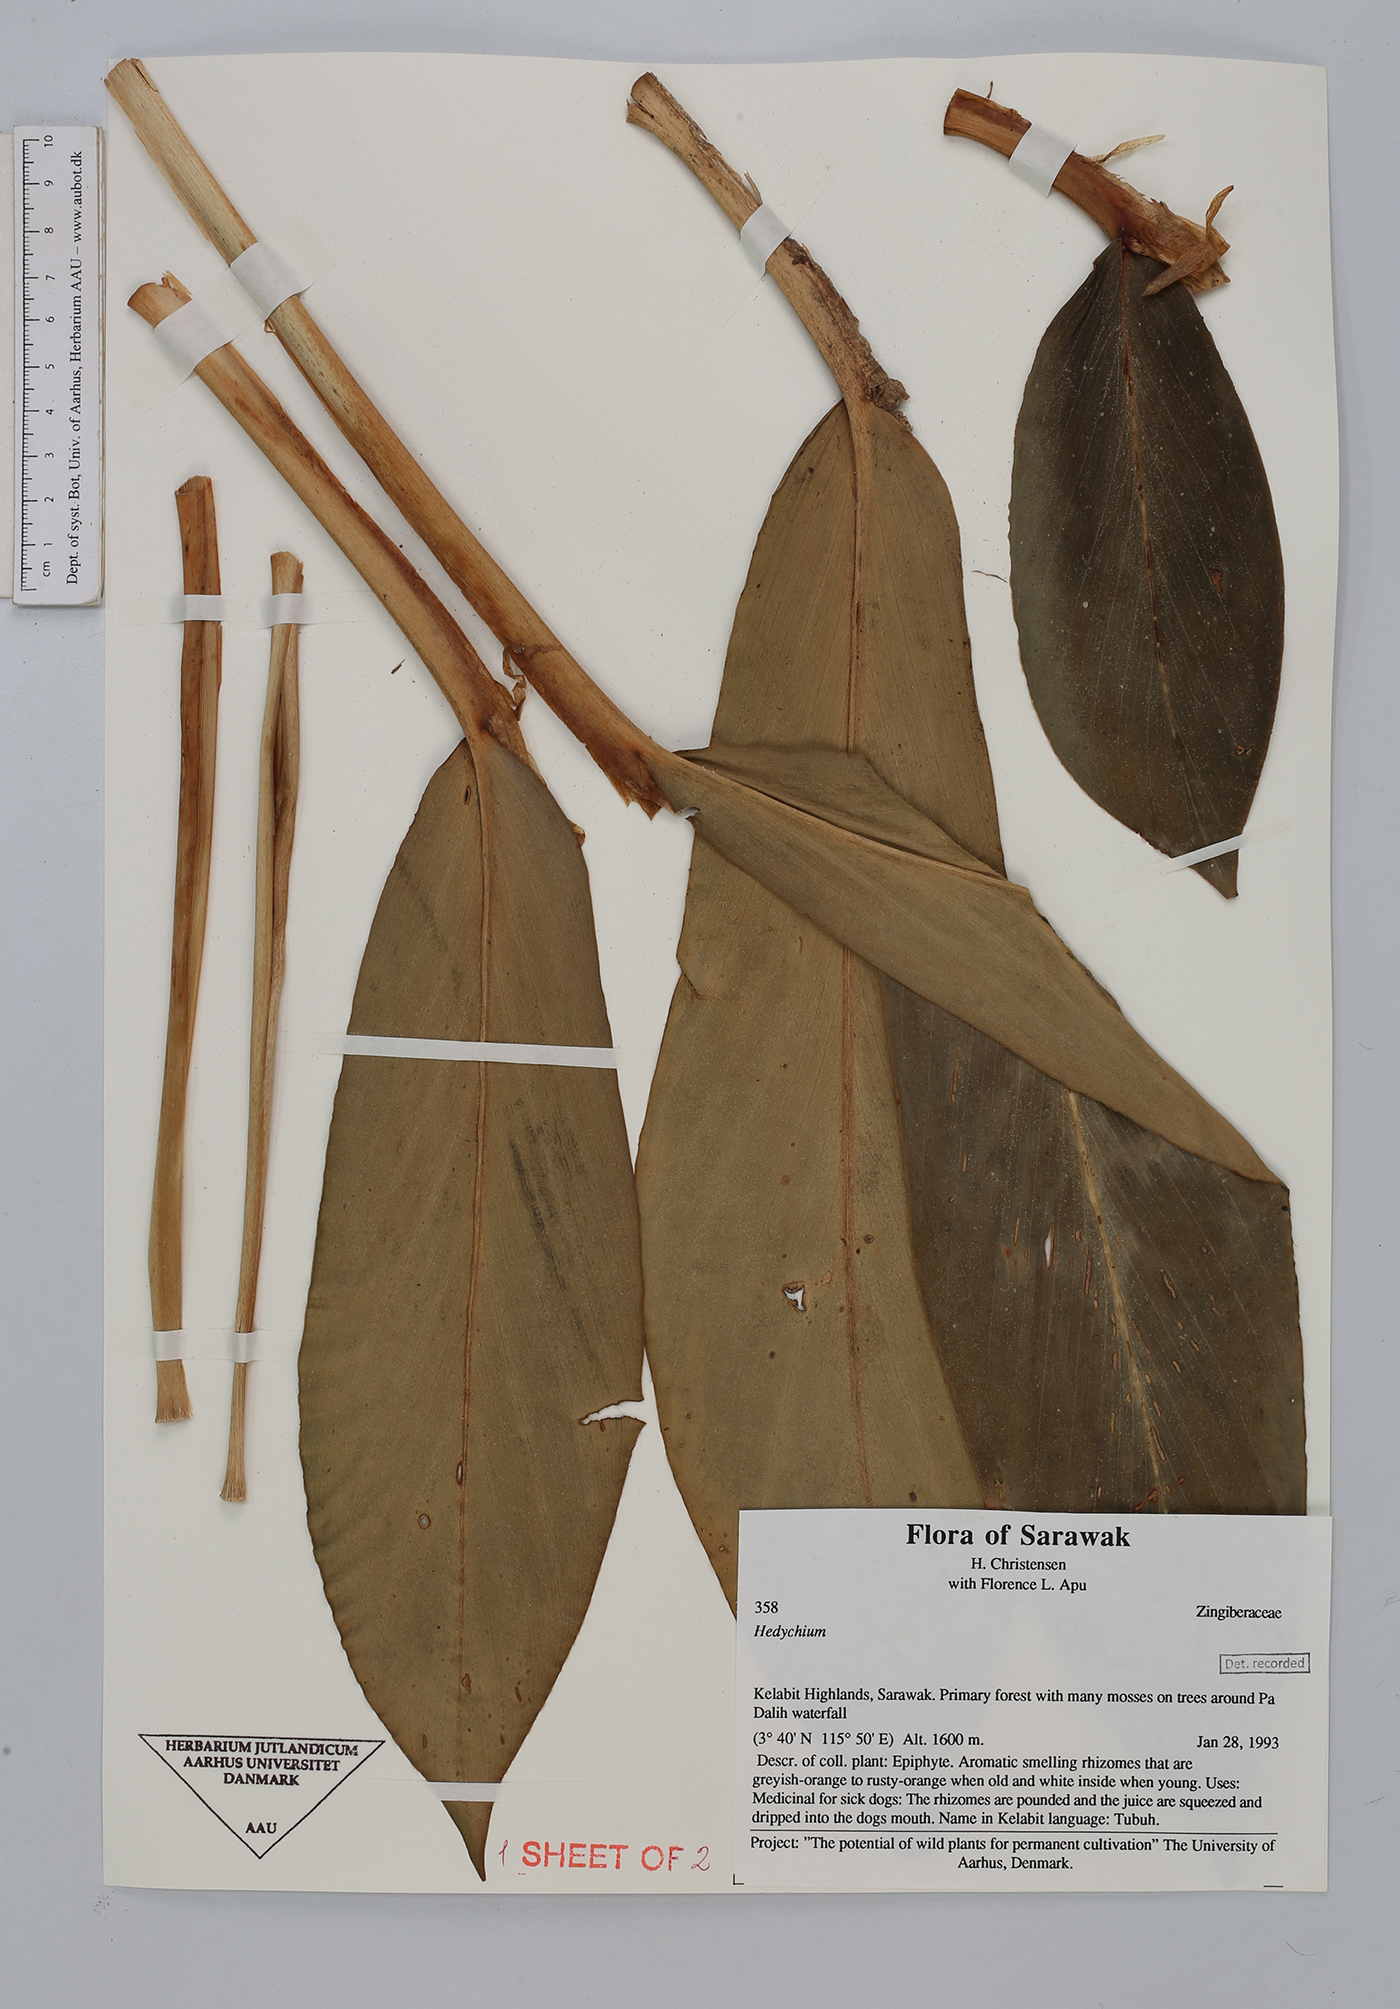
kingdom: Plantae
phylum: Tracheophyta
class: Liliopsida
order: Zingiberales
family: Zingiberaceae
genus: Hedychium
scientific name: Hedychium
